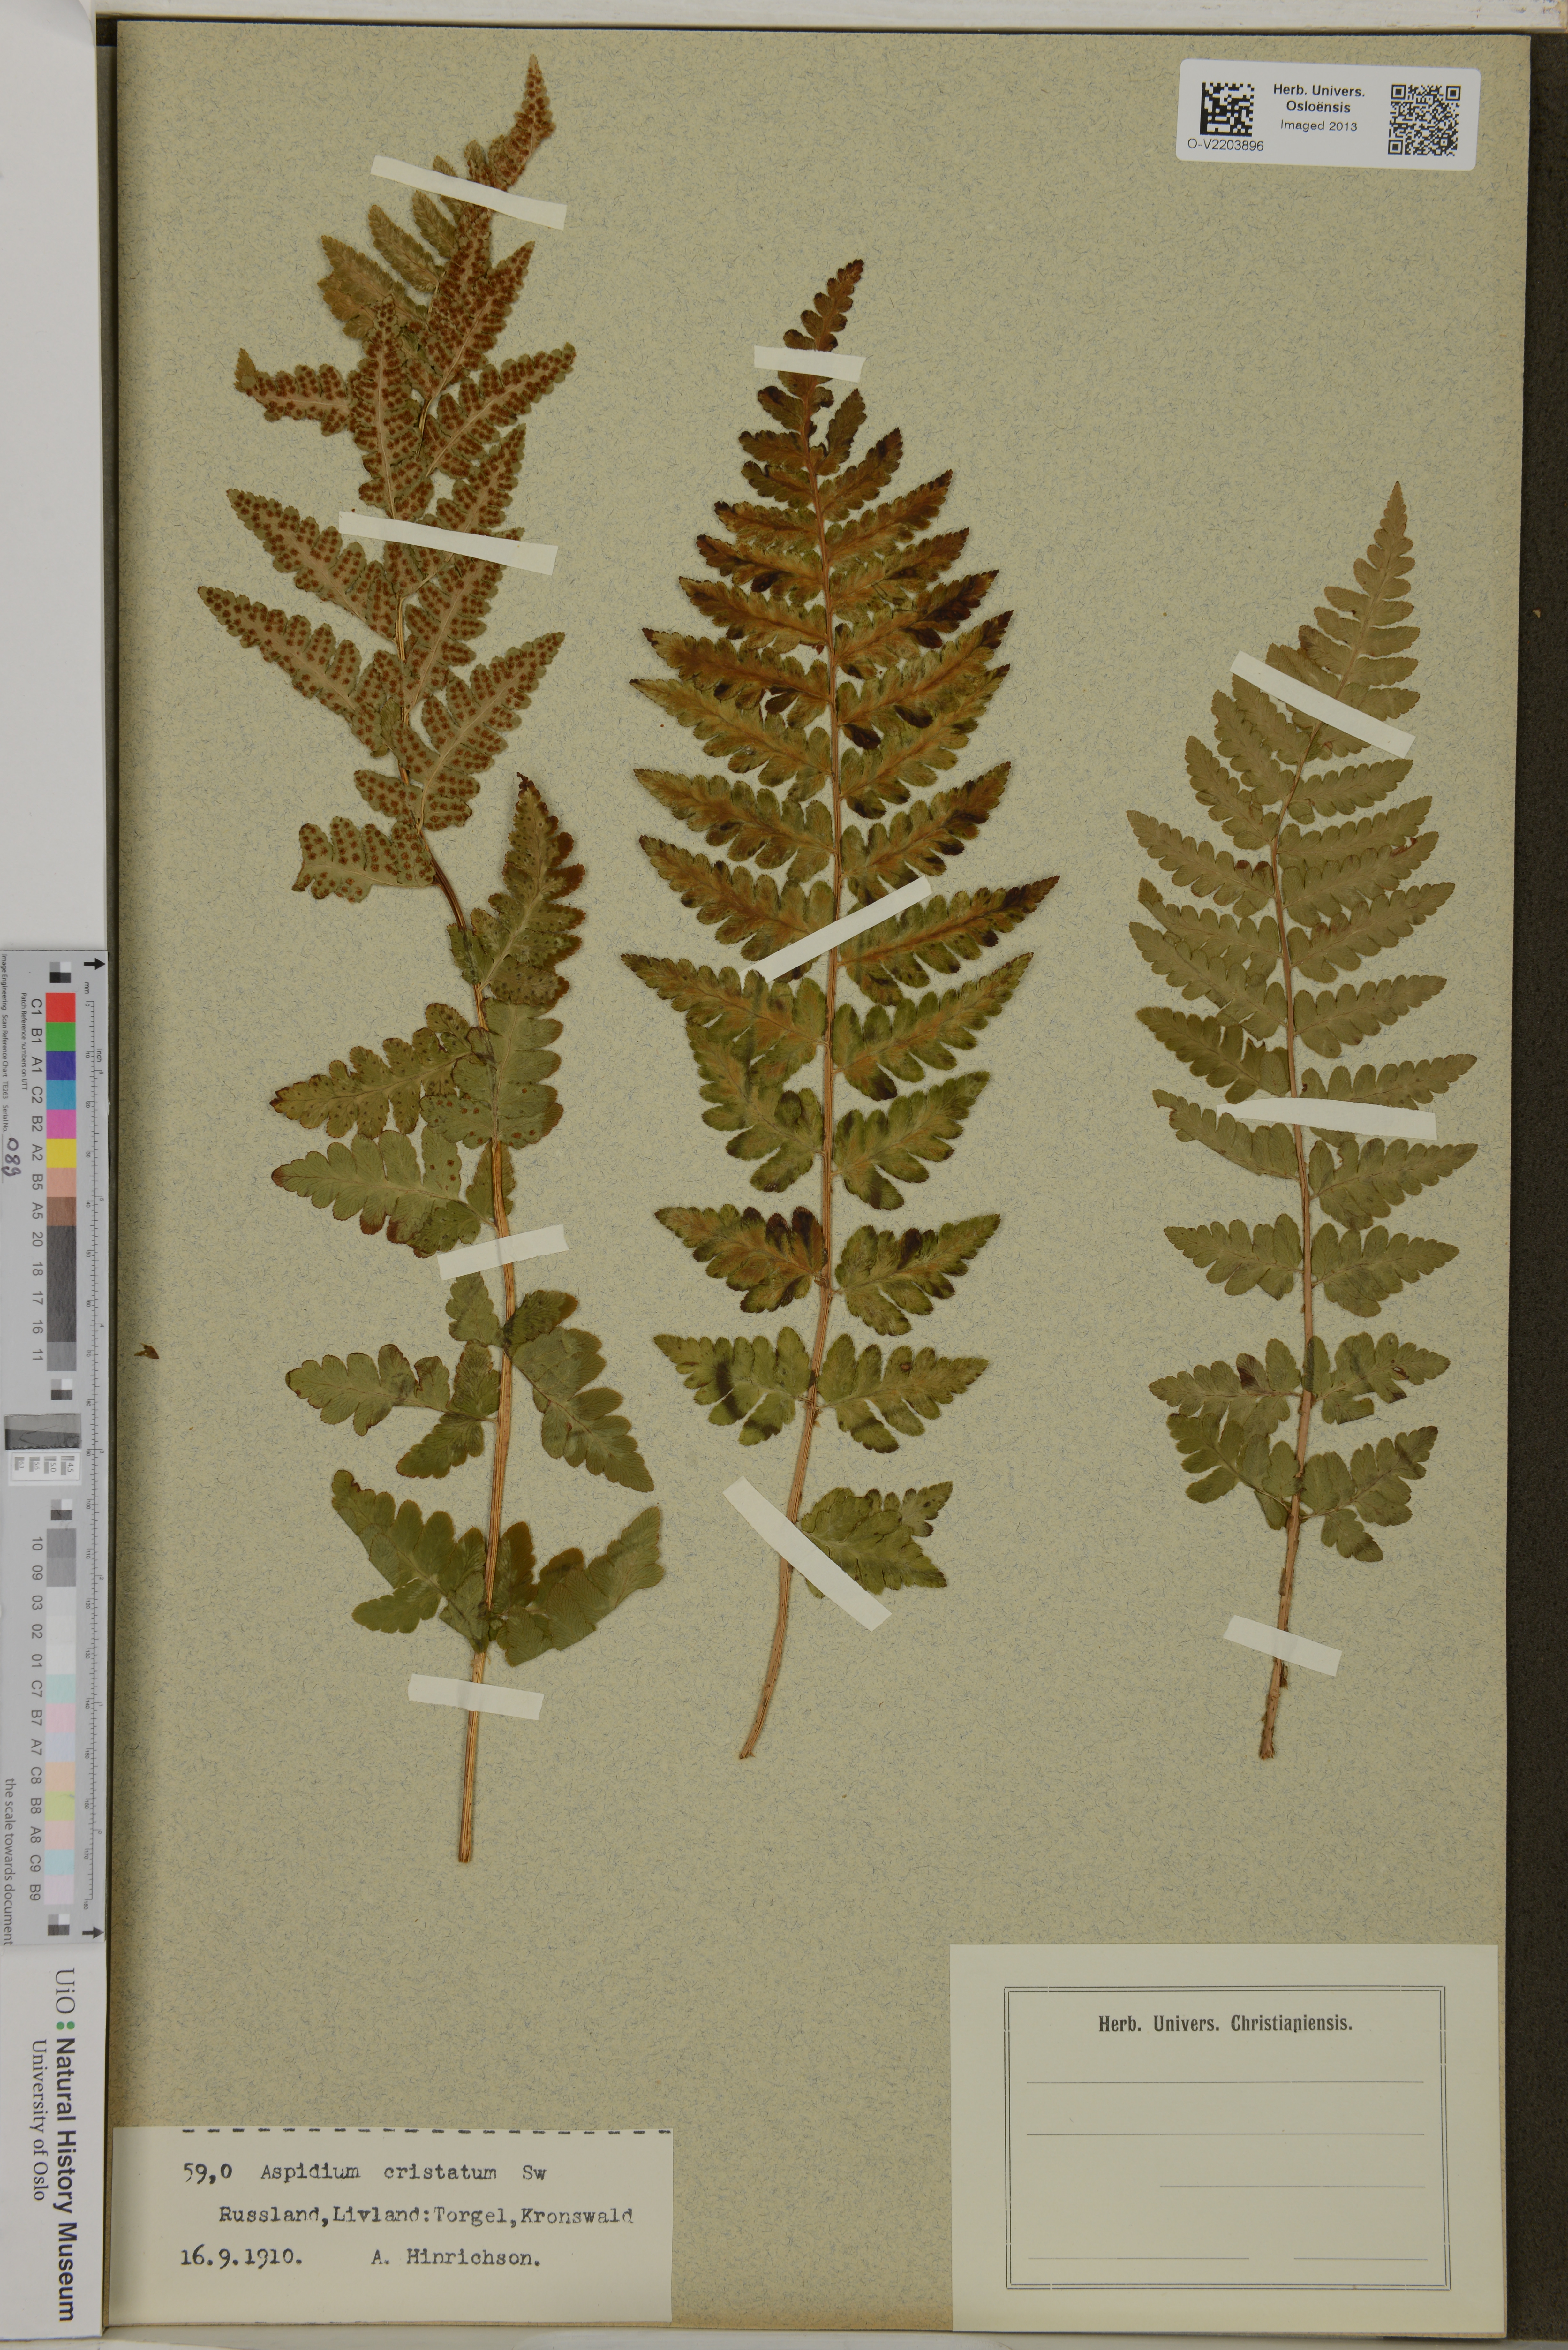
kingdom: Plantae
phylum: Tracheophyta
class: Polypodiopsida
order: Polypodiales
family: Dryopteridaceae
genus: Dryopteris
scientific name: Dryopteris cristata
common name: Crested wood fern
